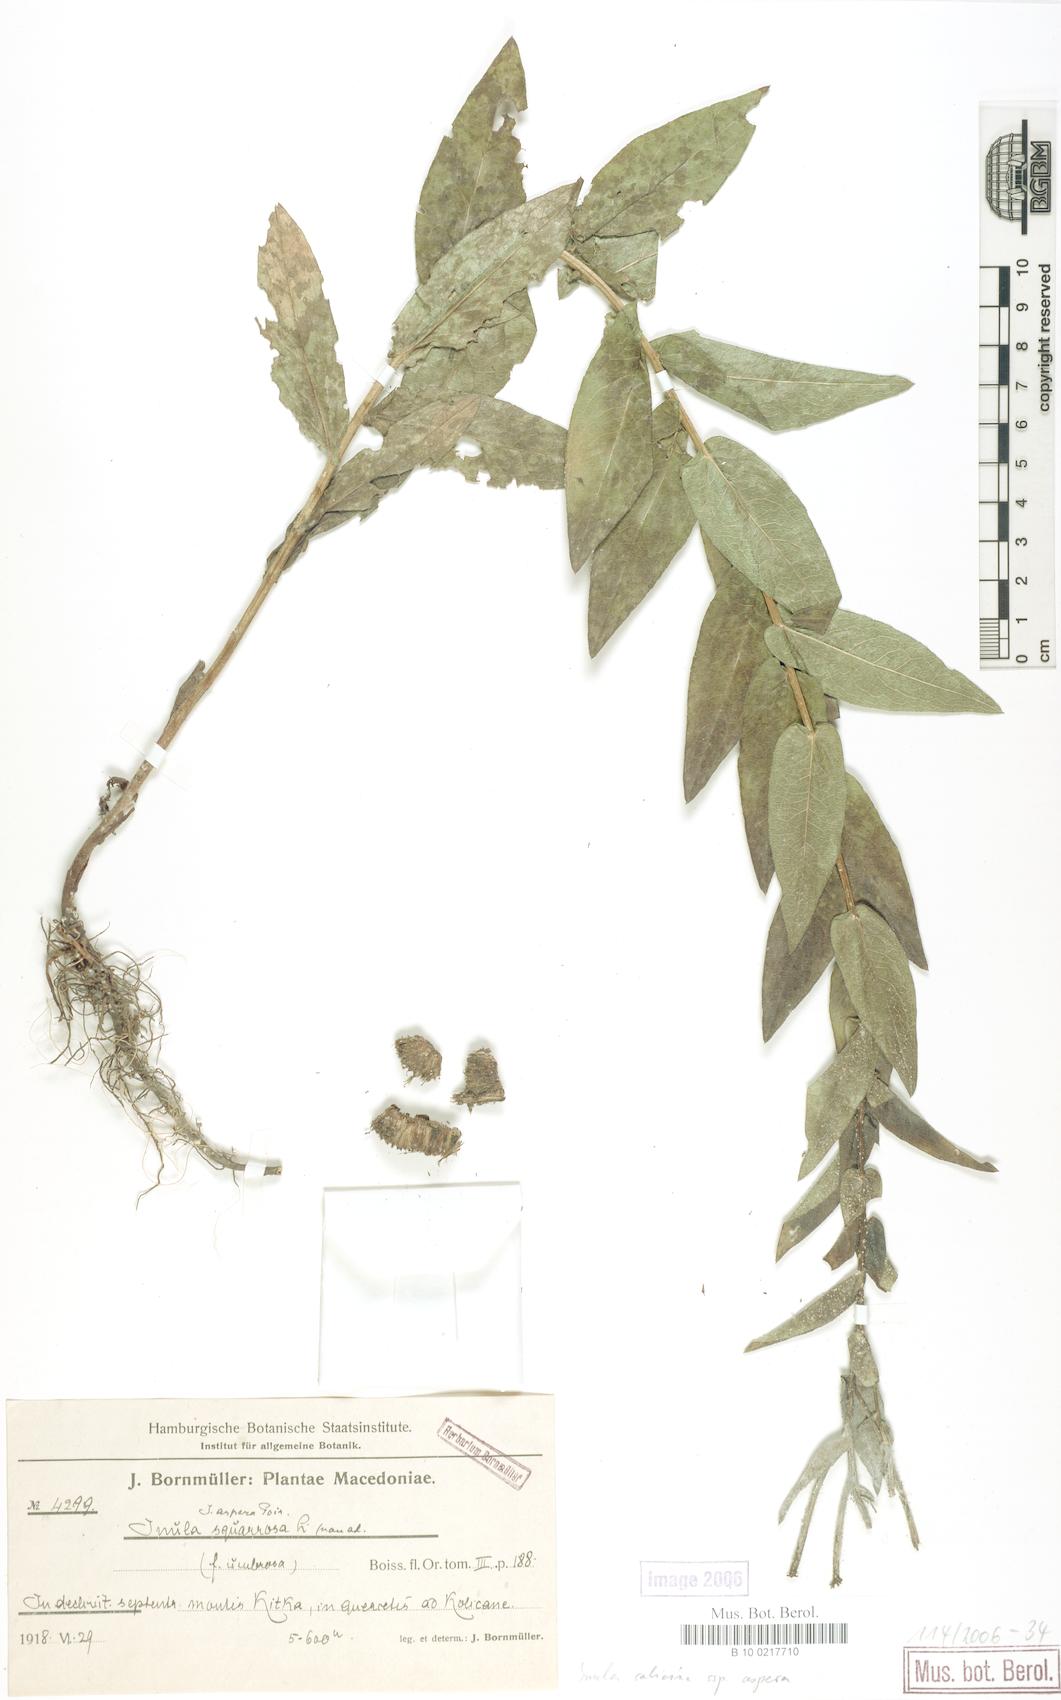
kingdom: Plantae
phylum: Tracheophyta
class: Magnoliopsida
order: Asterales
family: Asteraceae
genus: Pentanema
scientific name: Pentanema salicinum
